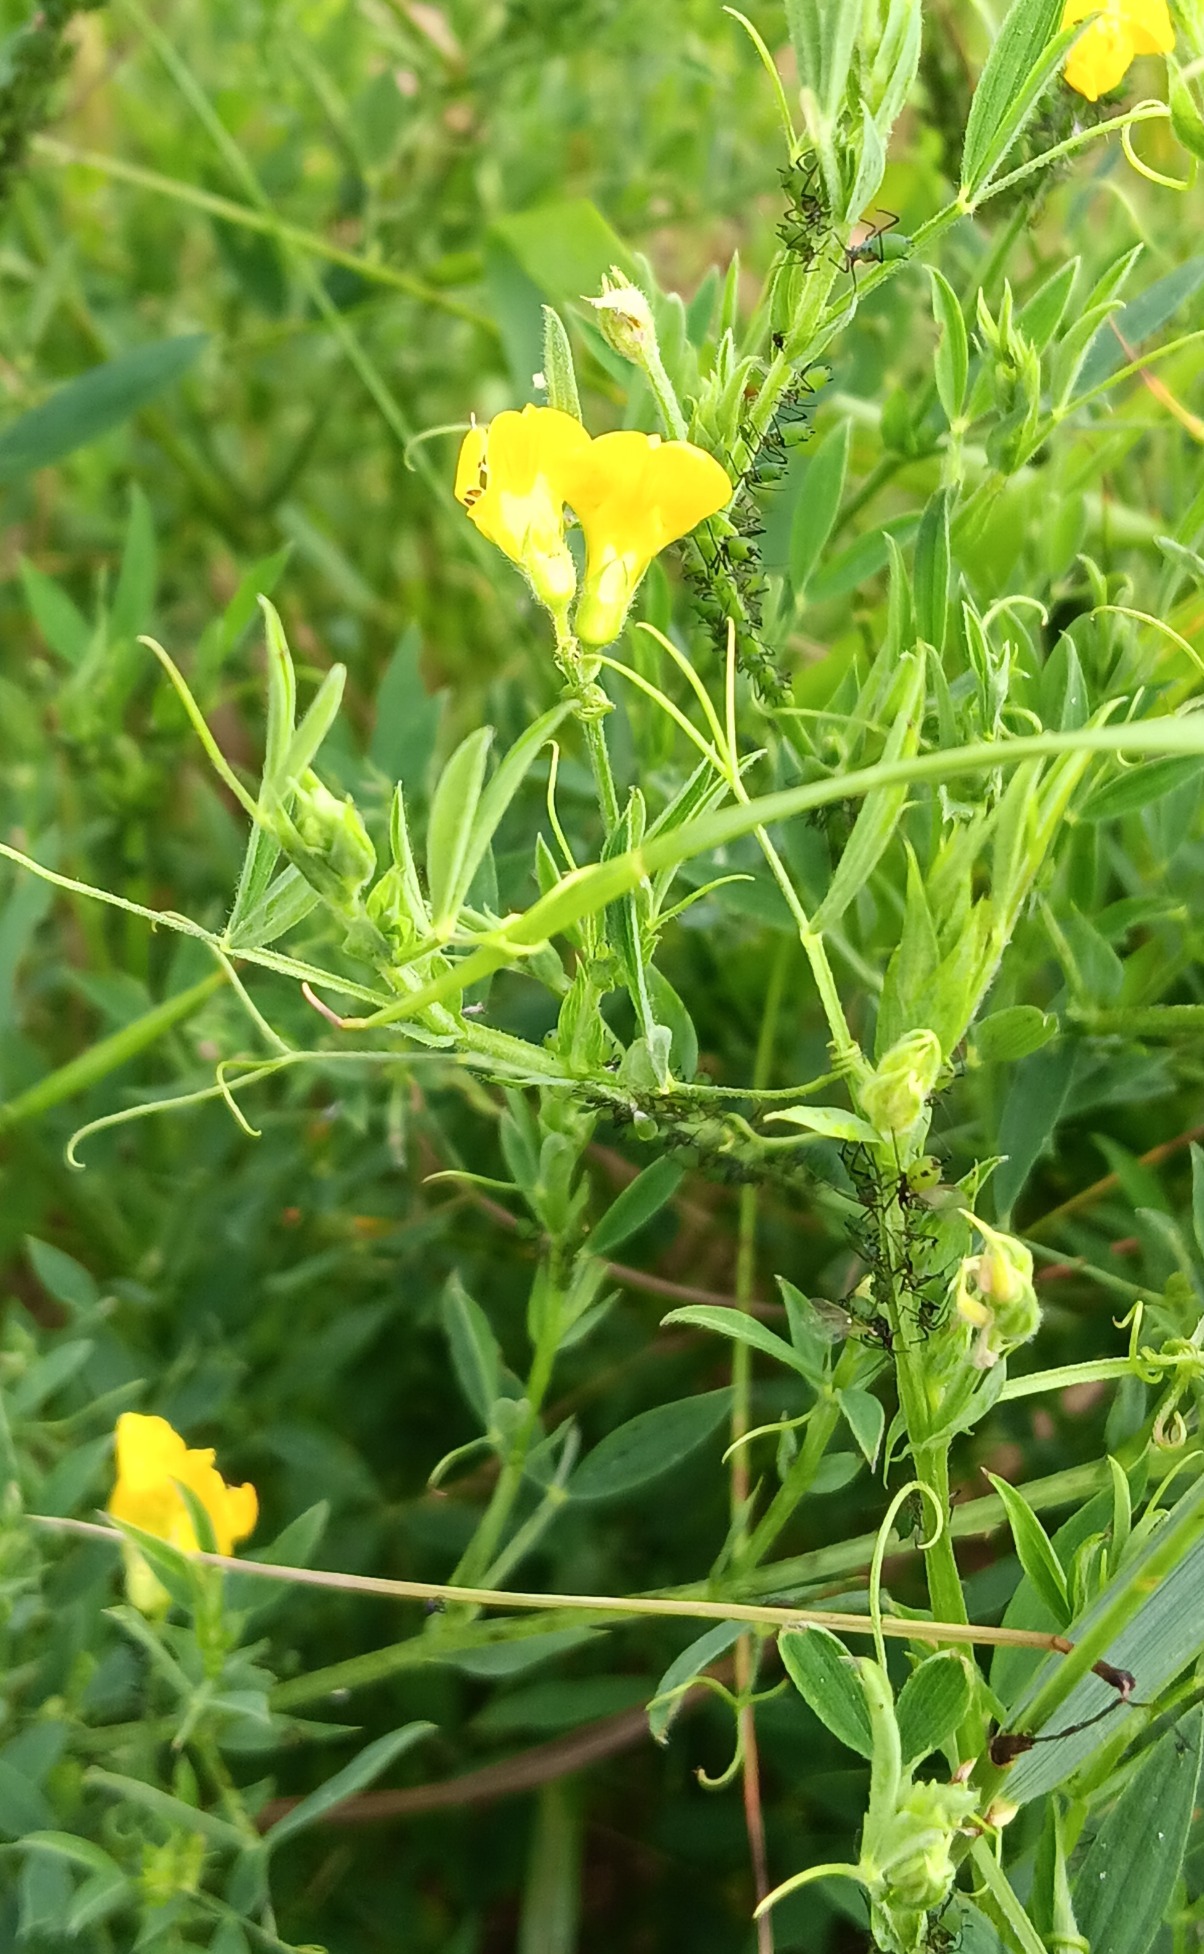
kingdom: Plantae
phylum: Tracheophyta
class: Magnoliopsida
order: Fabales
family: Fabaceae
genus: Lathyrus
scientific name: Lathyrus pratensis
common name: Gul fladbælg
